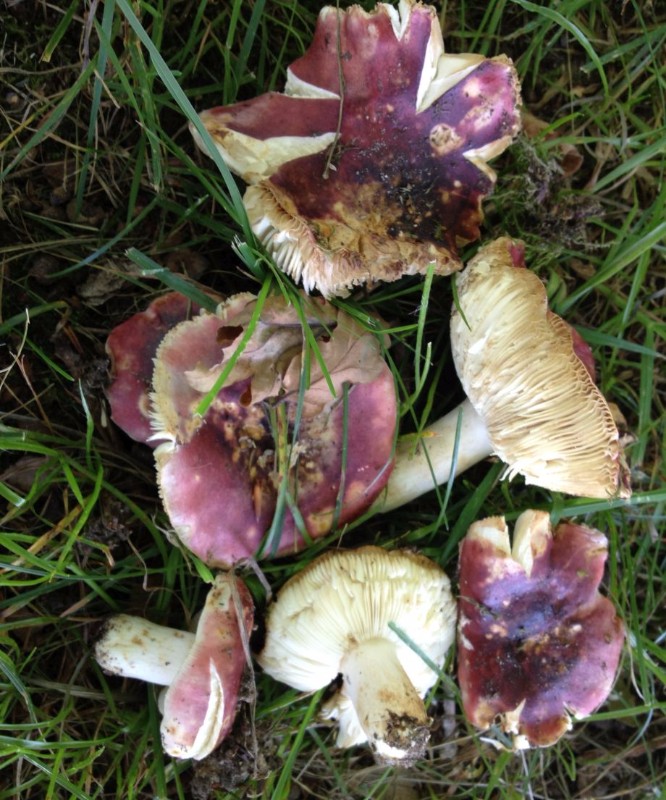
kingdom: Fungi
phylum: Basidiomycota
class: Agaricomycetes
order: Russulales
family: Russulaceae
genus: Russula
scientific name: Russula atropurpurea
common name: purpurbroget skørhat
